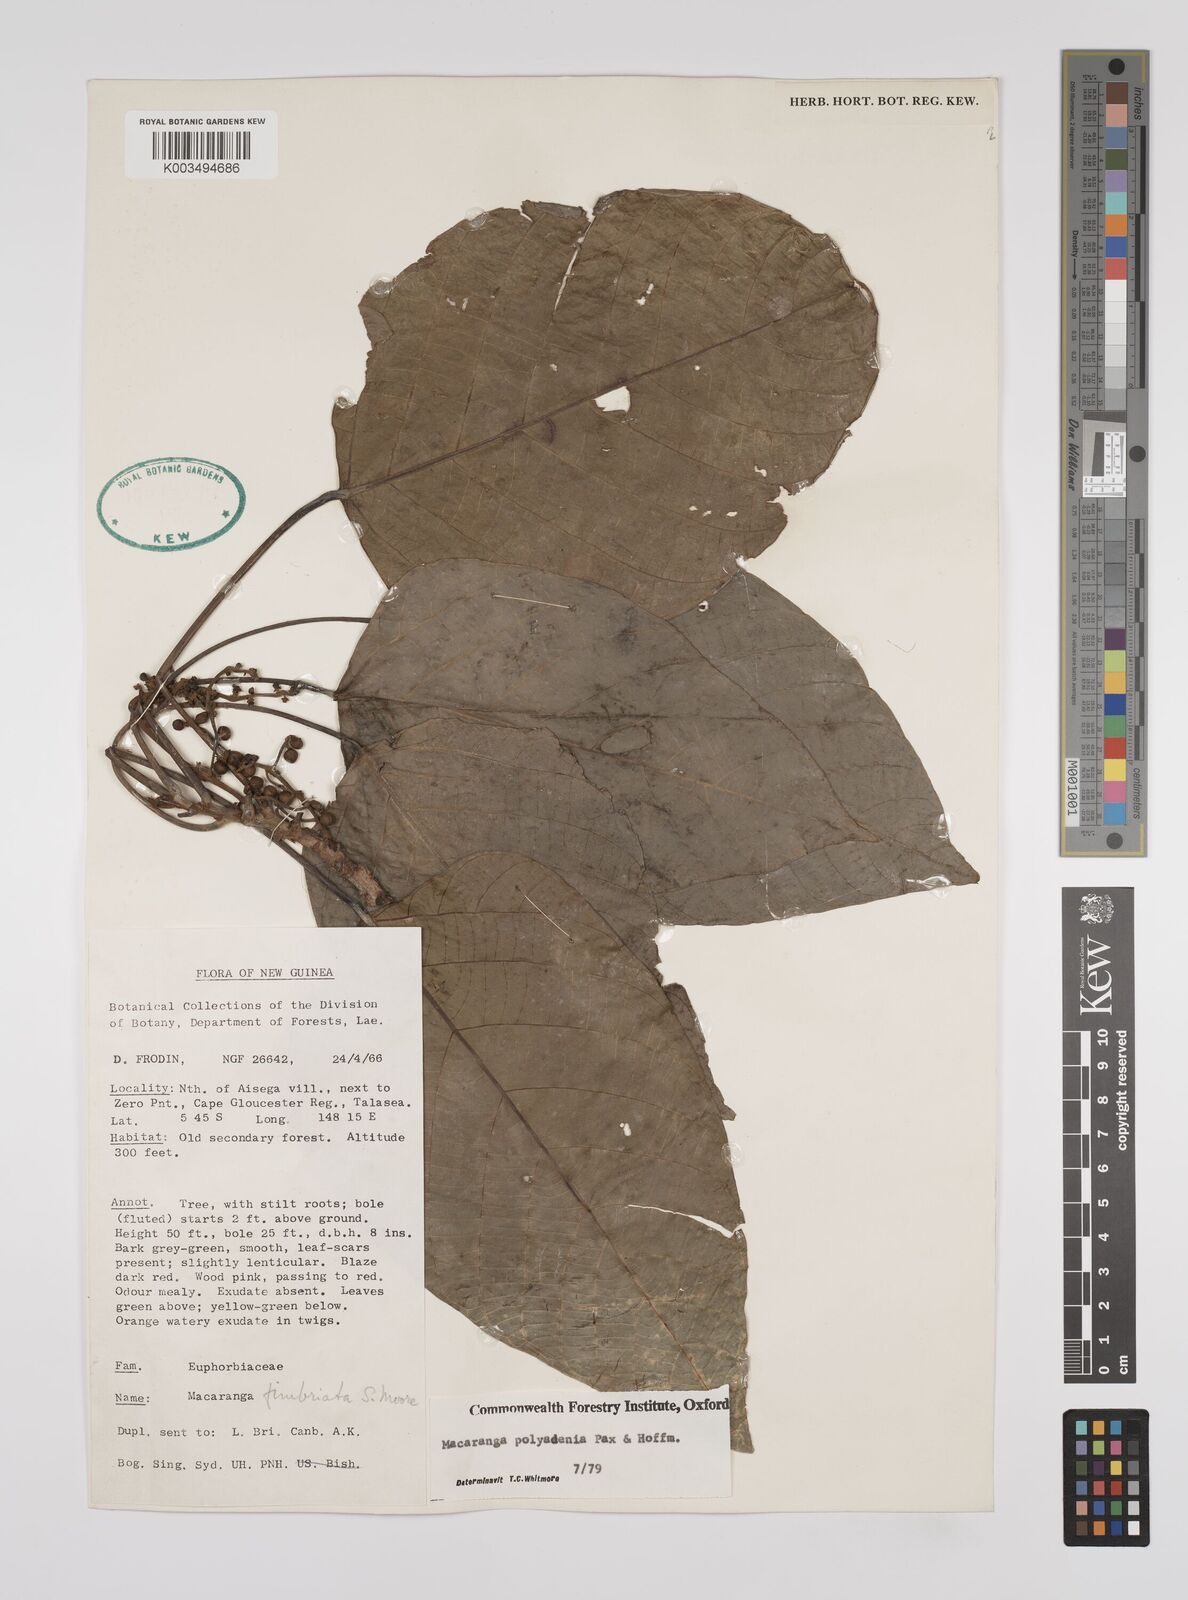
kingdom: Plantae
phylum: Tracheophyta
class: Magnoliopsida
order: Malpighiales
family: Euphorbiaceae
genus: Macaranga
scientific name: Macaranga polyadenia
